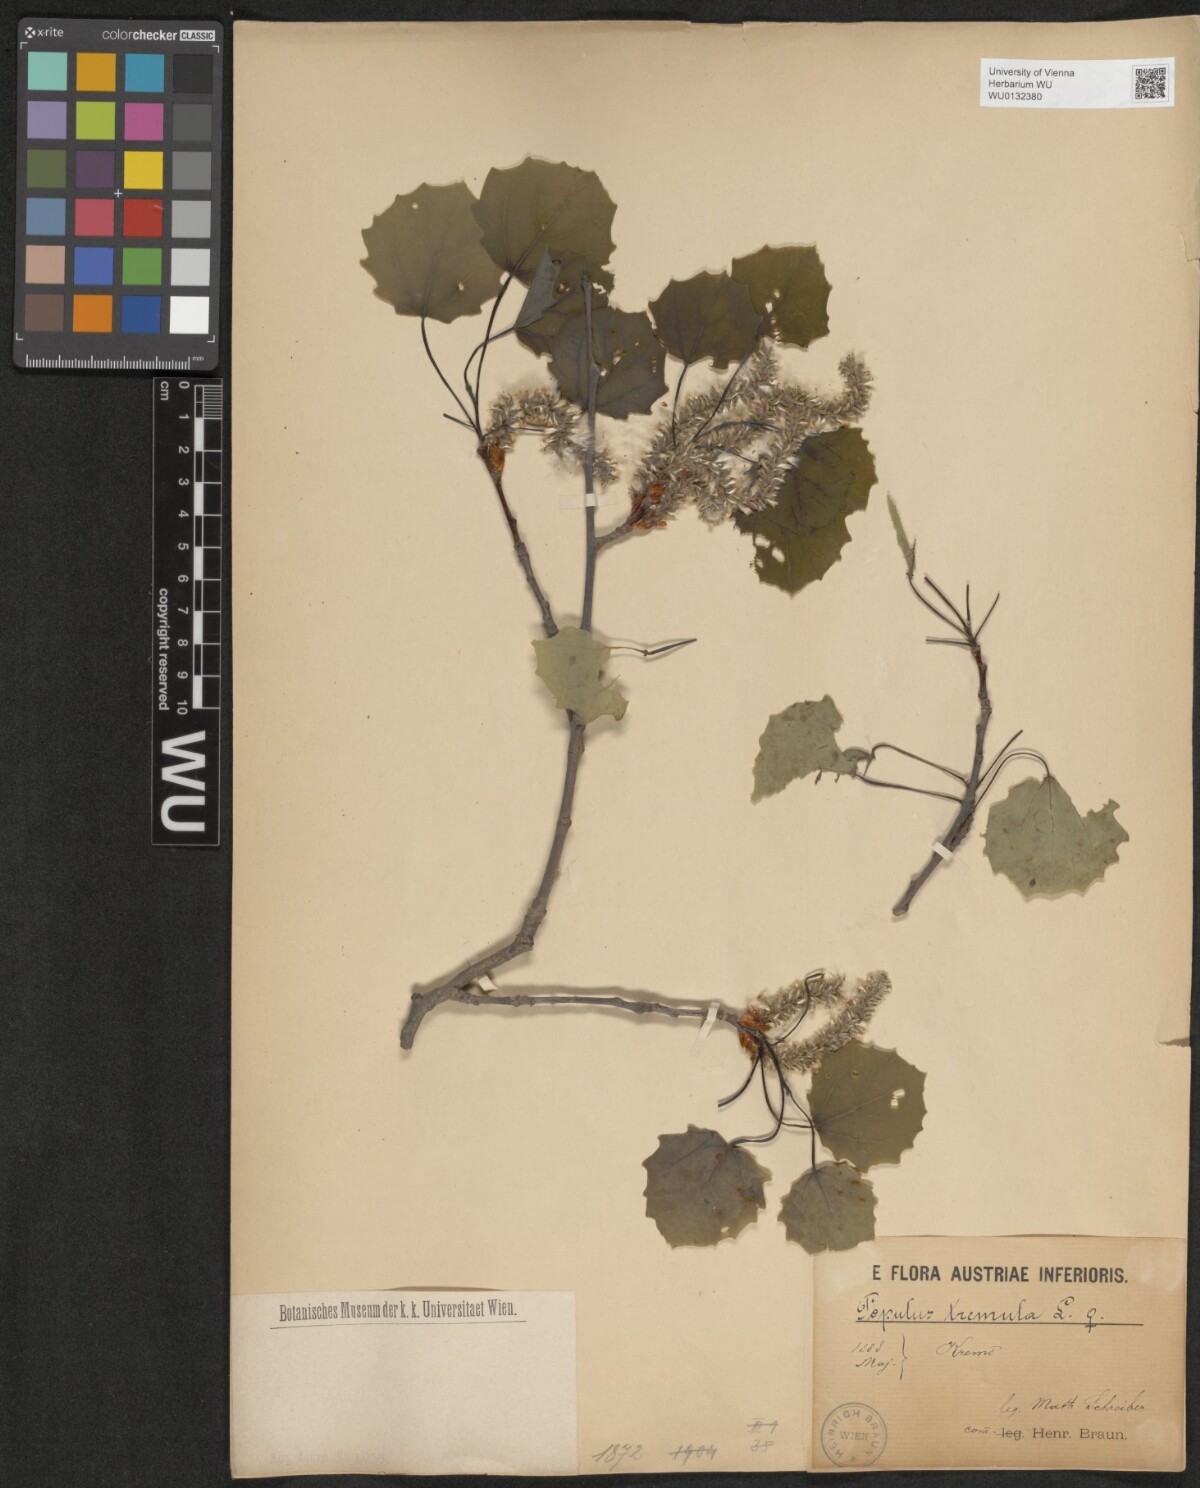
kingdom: Plantae
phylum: Tracheophyta
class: Magnoliopsida
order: Malpighiales
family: Salicaceae
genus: Populus
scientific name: Populus tremula
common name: European aspen
